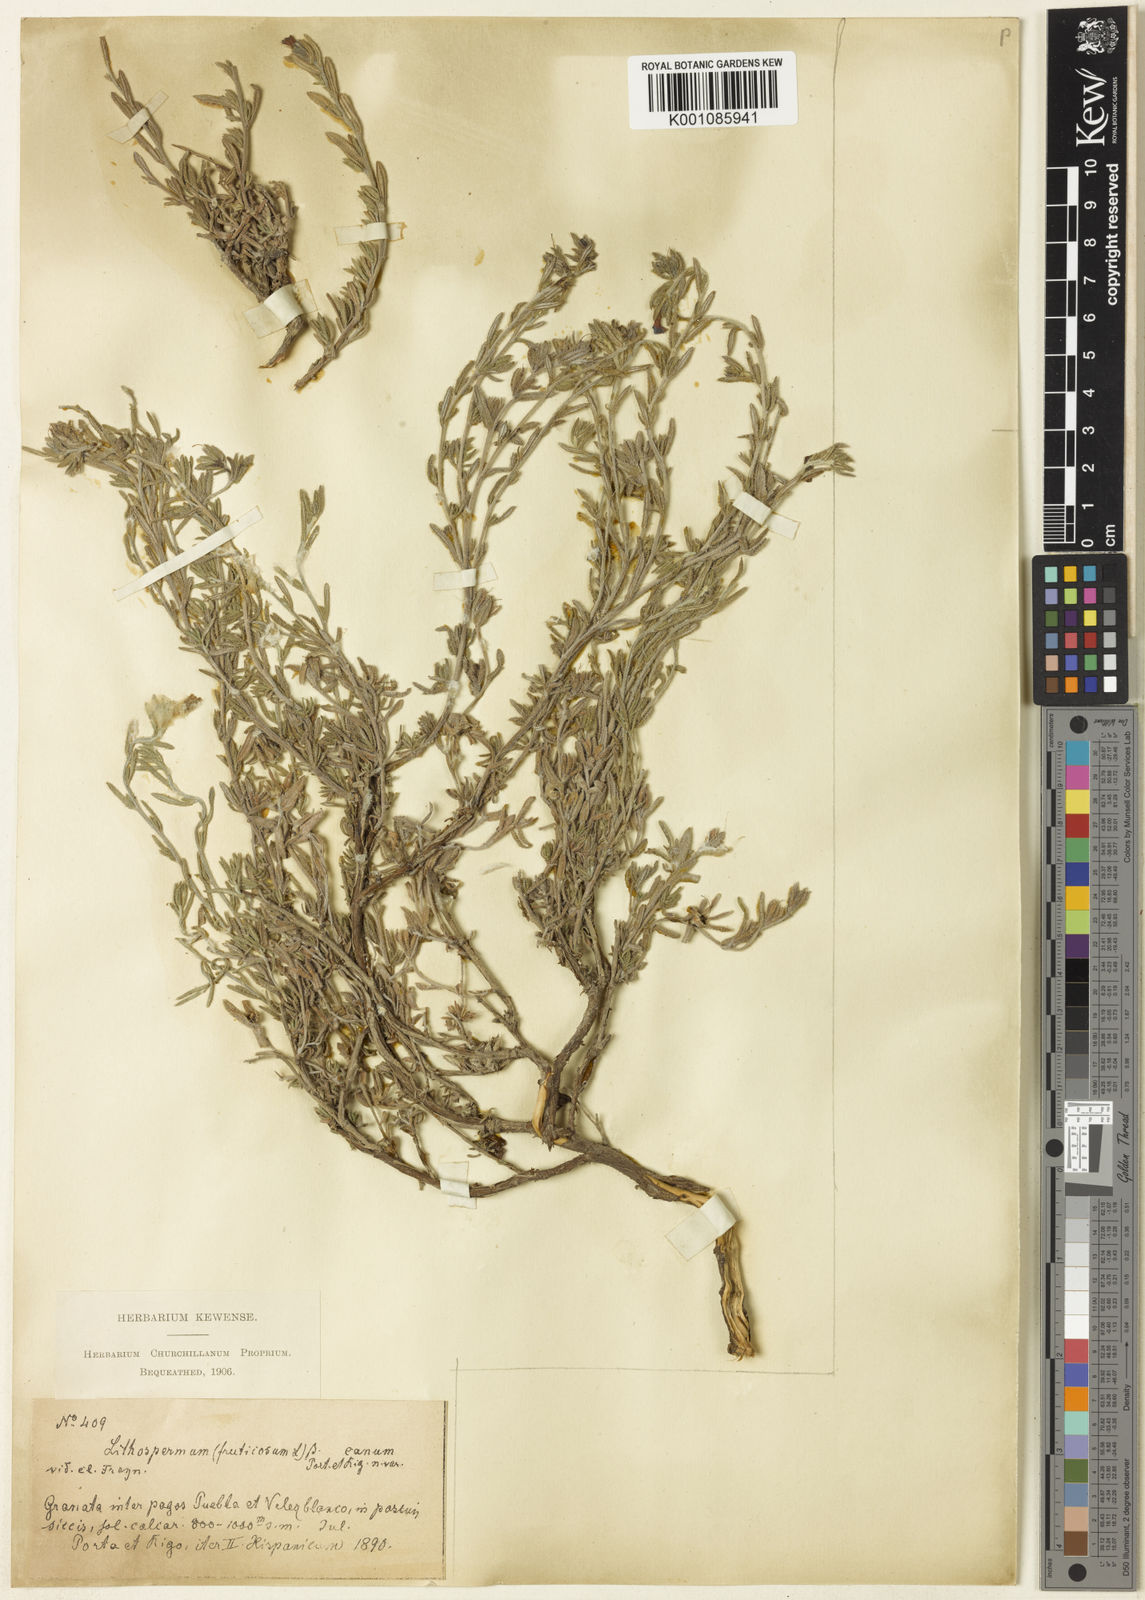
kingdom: Plantae
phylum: Tracheophyta
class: Magnoliopsida
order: Boraginales
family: Boraginaceae
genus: Lithodora
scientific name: Lithodora fruticosa
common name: Shrubby gromwell
